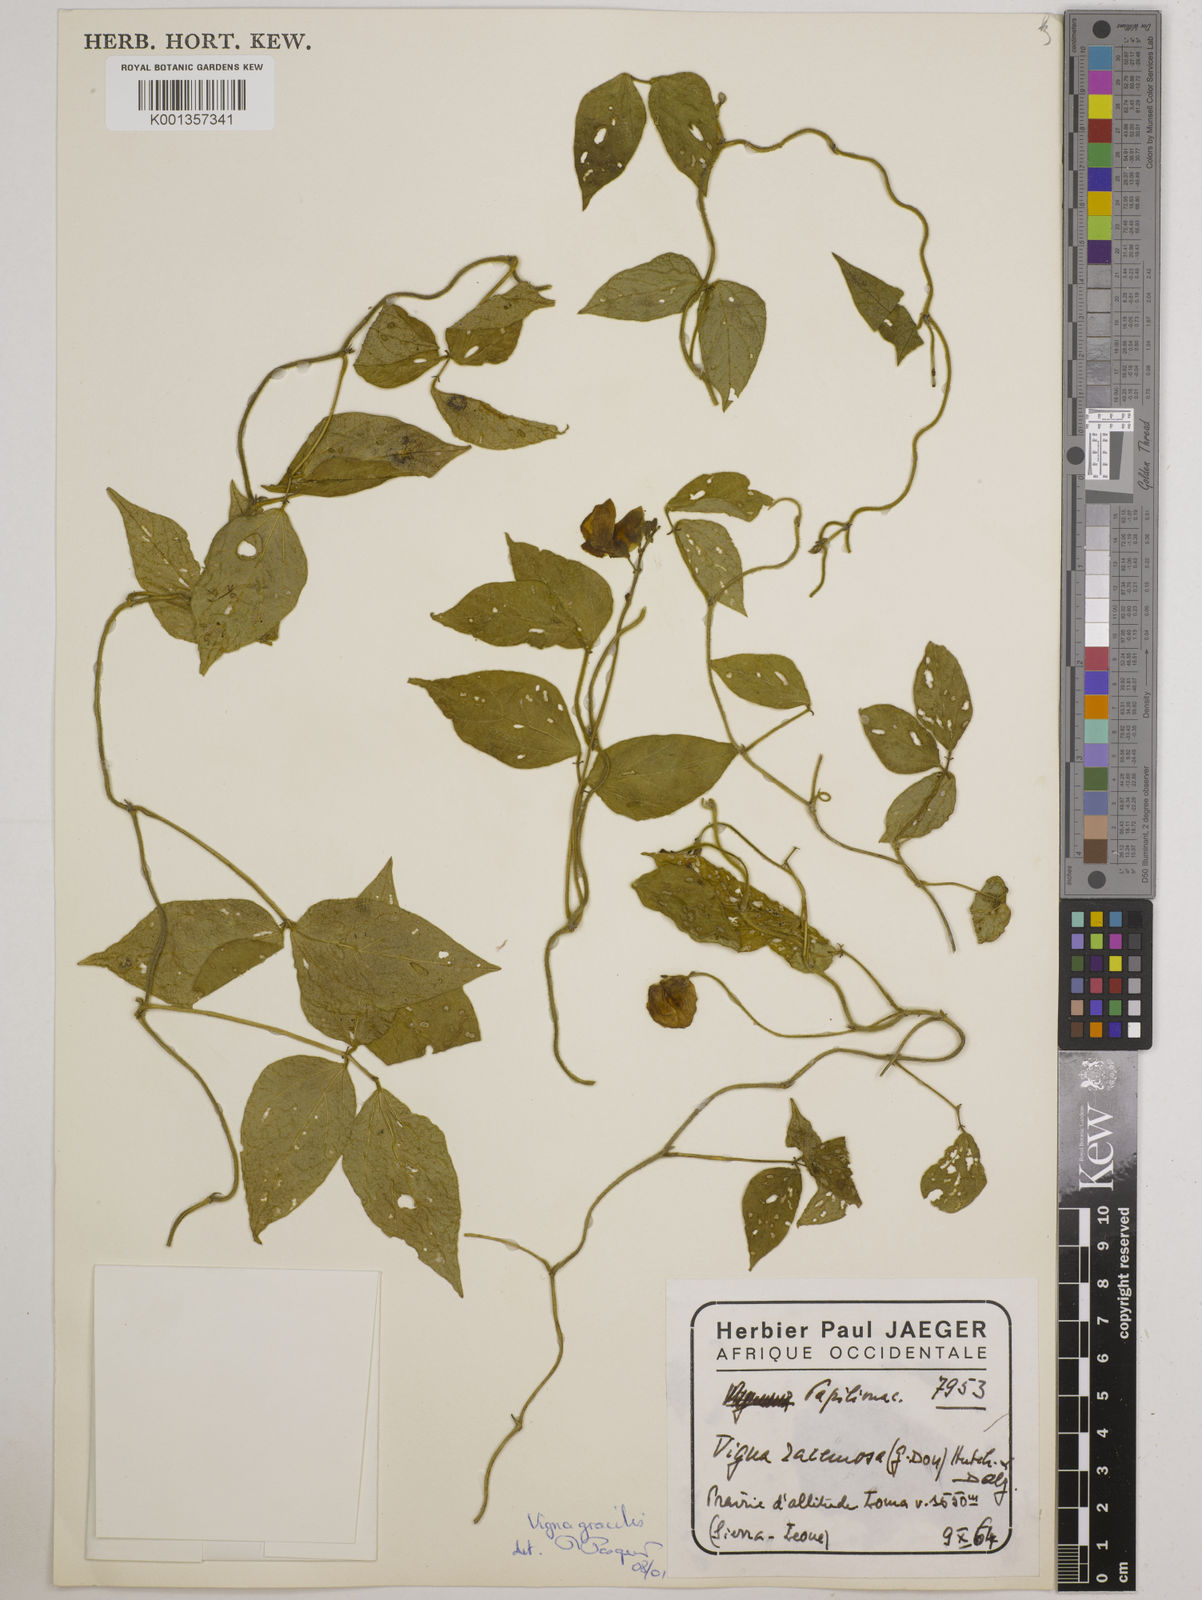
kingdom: Plantae
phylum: Tracheophyta
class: Magnoliopsida
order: Fabales
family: Fabaceae
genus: Vigna
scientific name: Vigna gracilis
